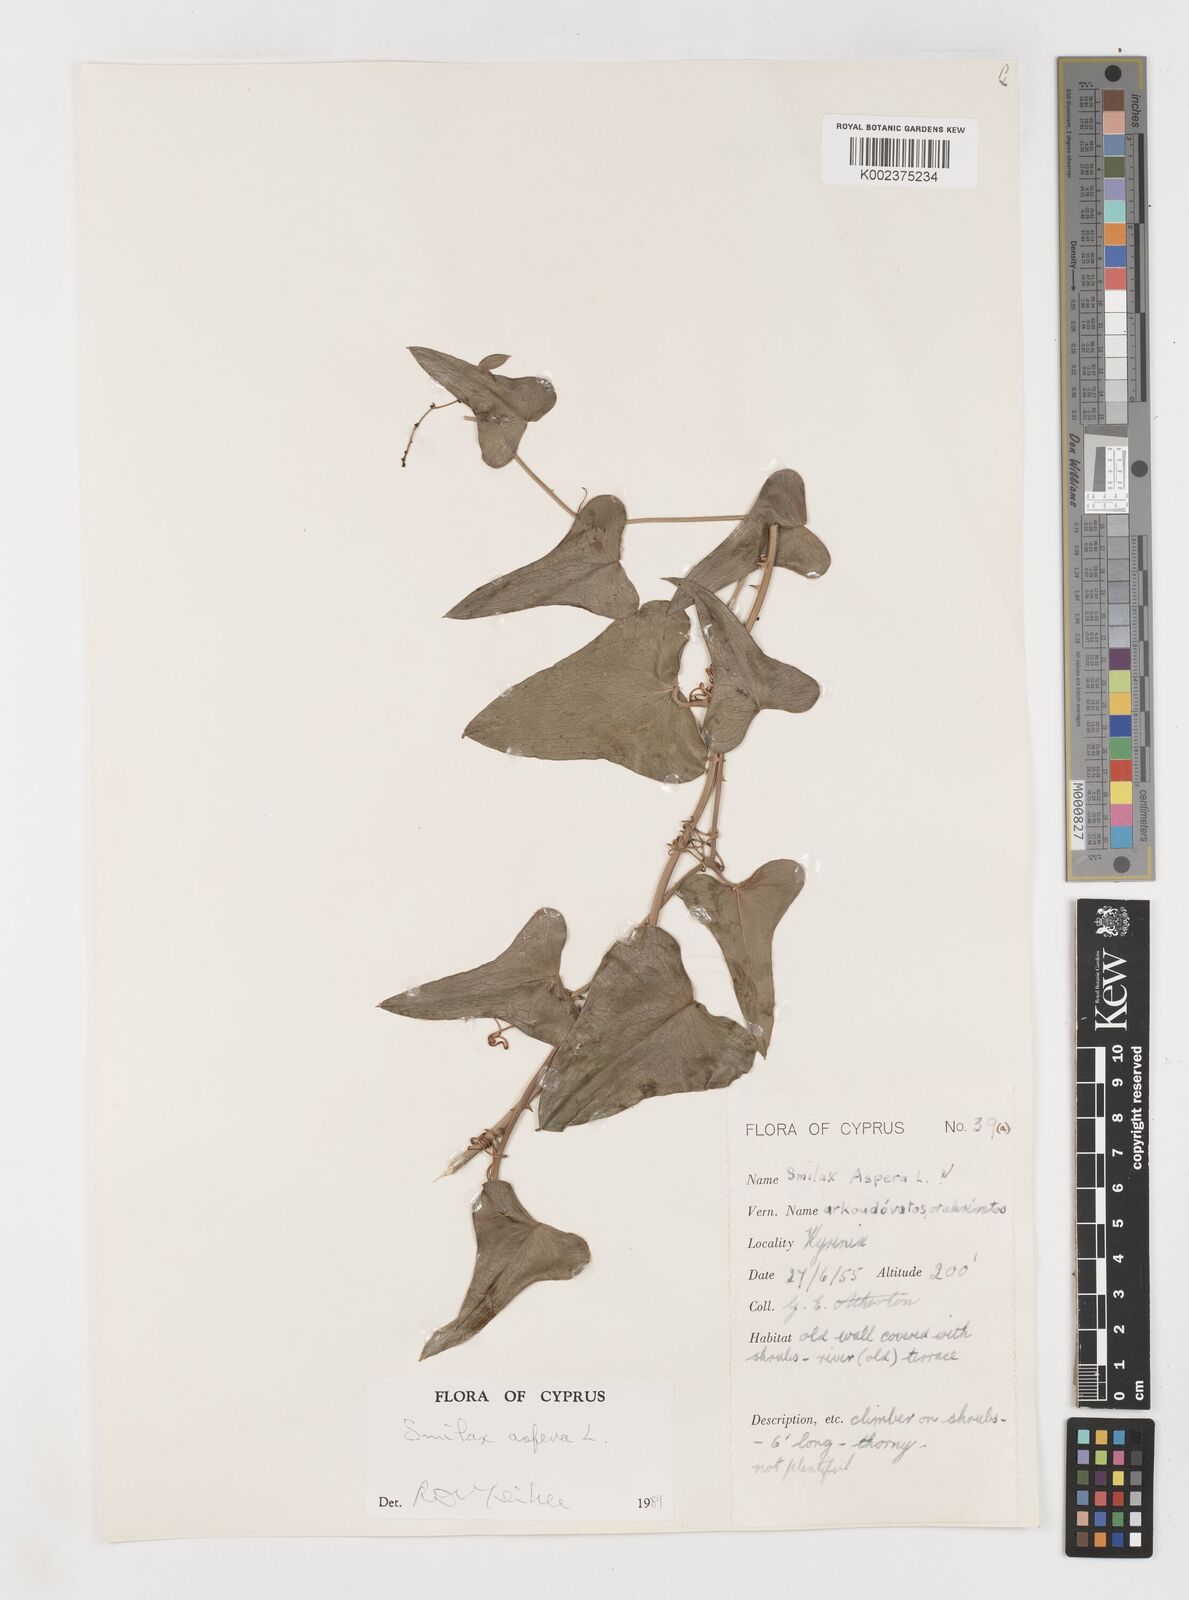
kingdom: Plantae
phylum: Tracheophyta
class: Liliopsida
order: Liliales
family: Smilacaceae
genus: Smilax
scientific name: Smilax aspera
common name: Common smilax
